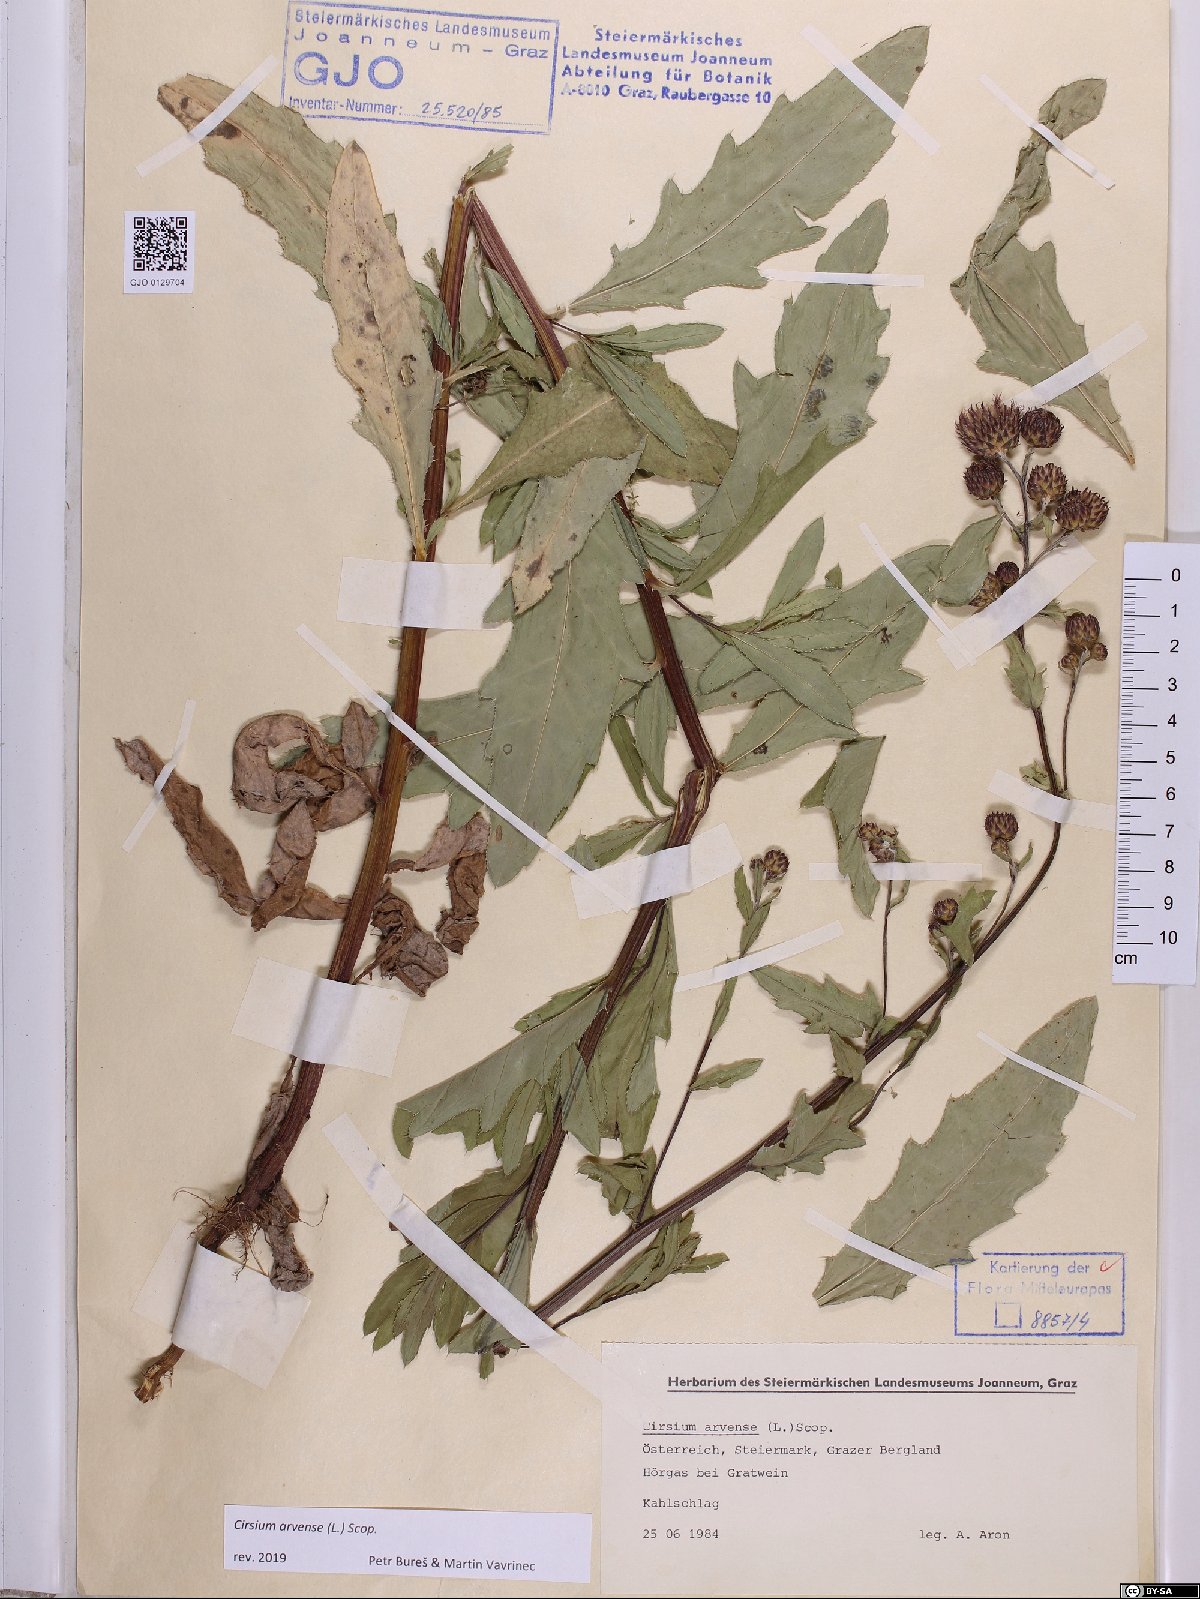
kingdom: Plantae
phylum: Tracheophyta
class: Magnoliopsida
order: Asterales
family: Asteraceae
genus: Cirsium
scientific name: Cirsium arvense
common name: Creeping thistle
